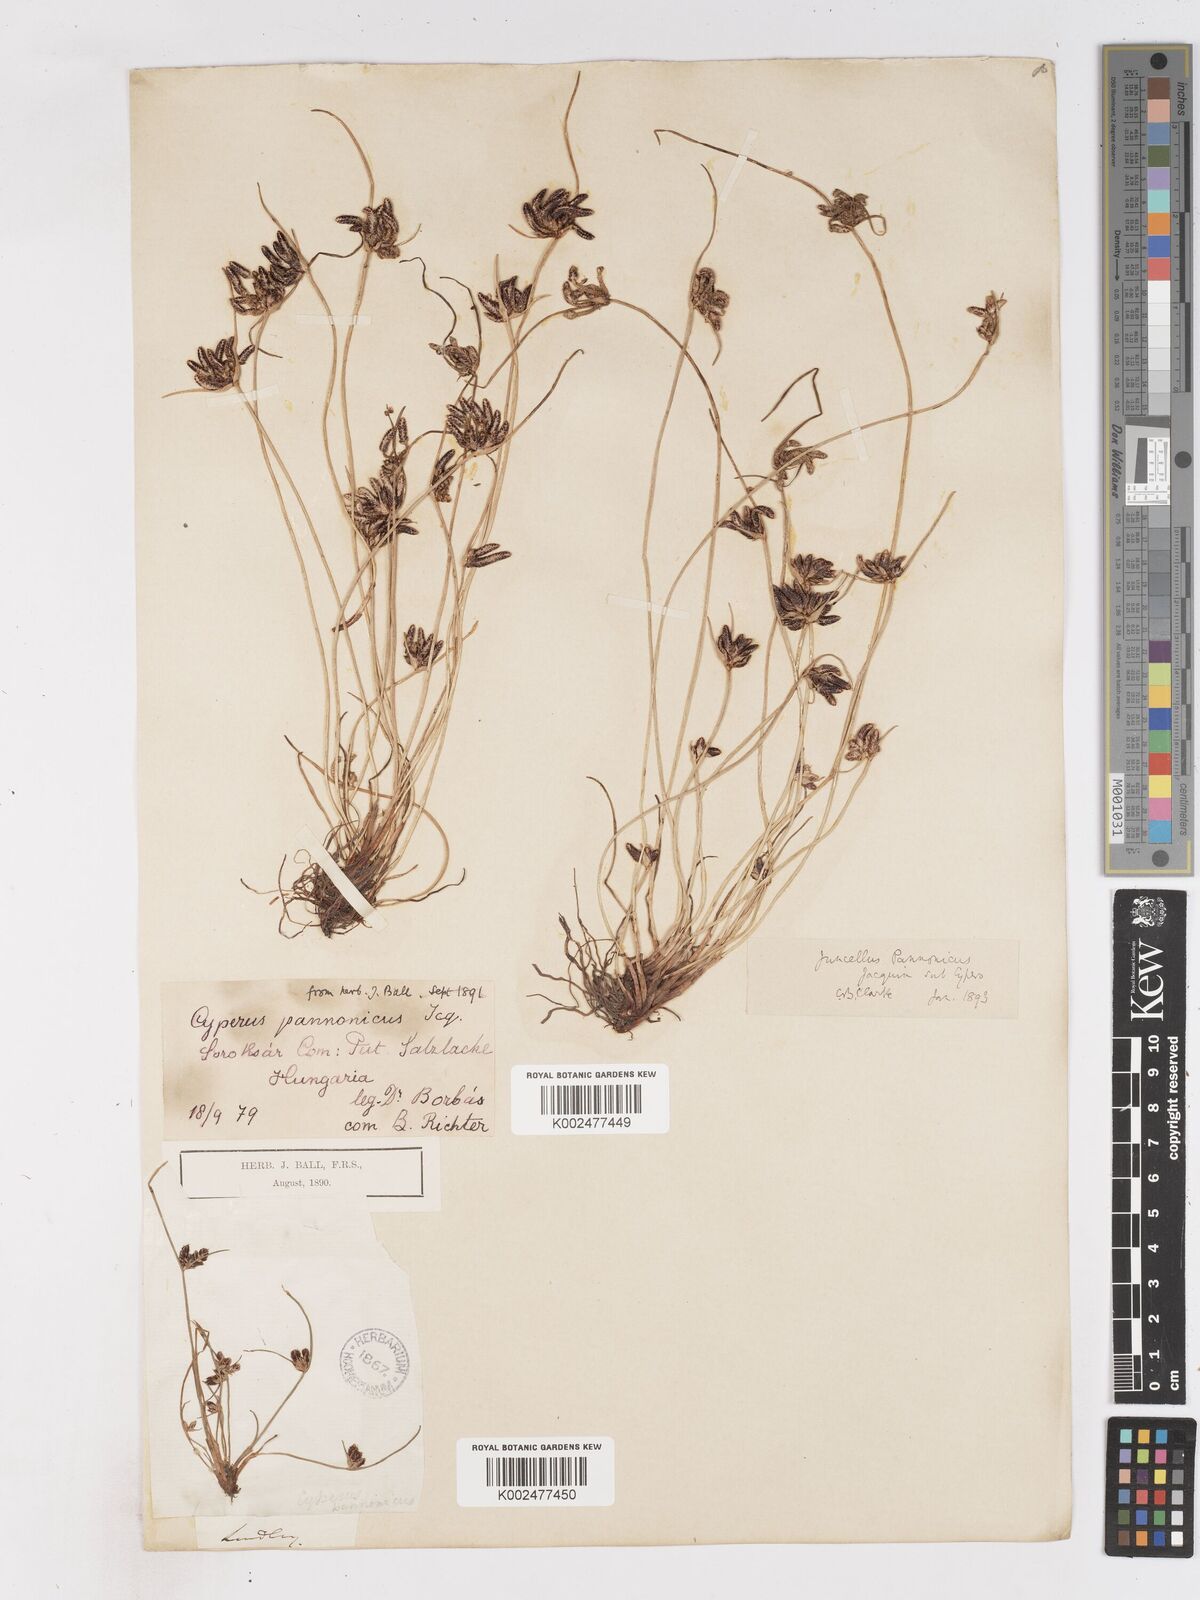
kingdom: Plantae
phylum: Tracheophyta
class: Liliopsida
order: Poales
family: Cyperaceae
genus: Cyperus
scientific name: Cyperus pannonicus
